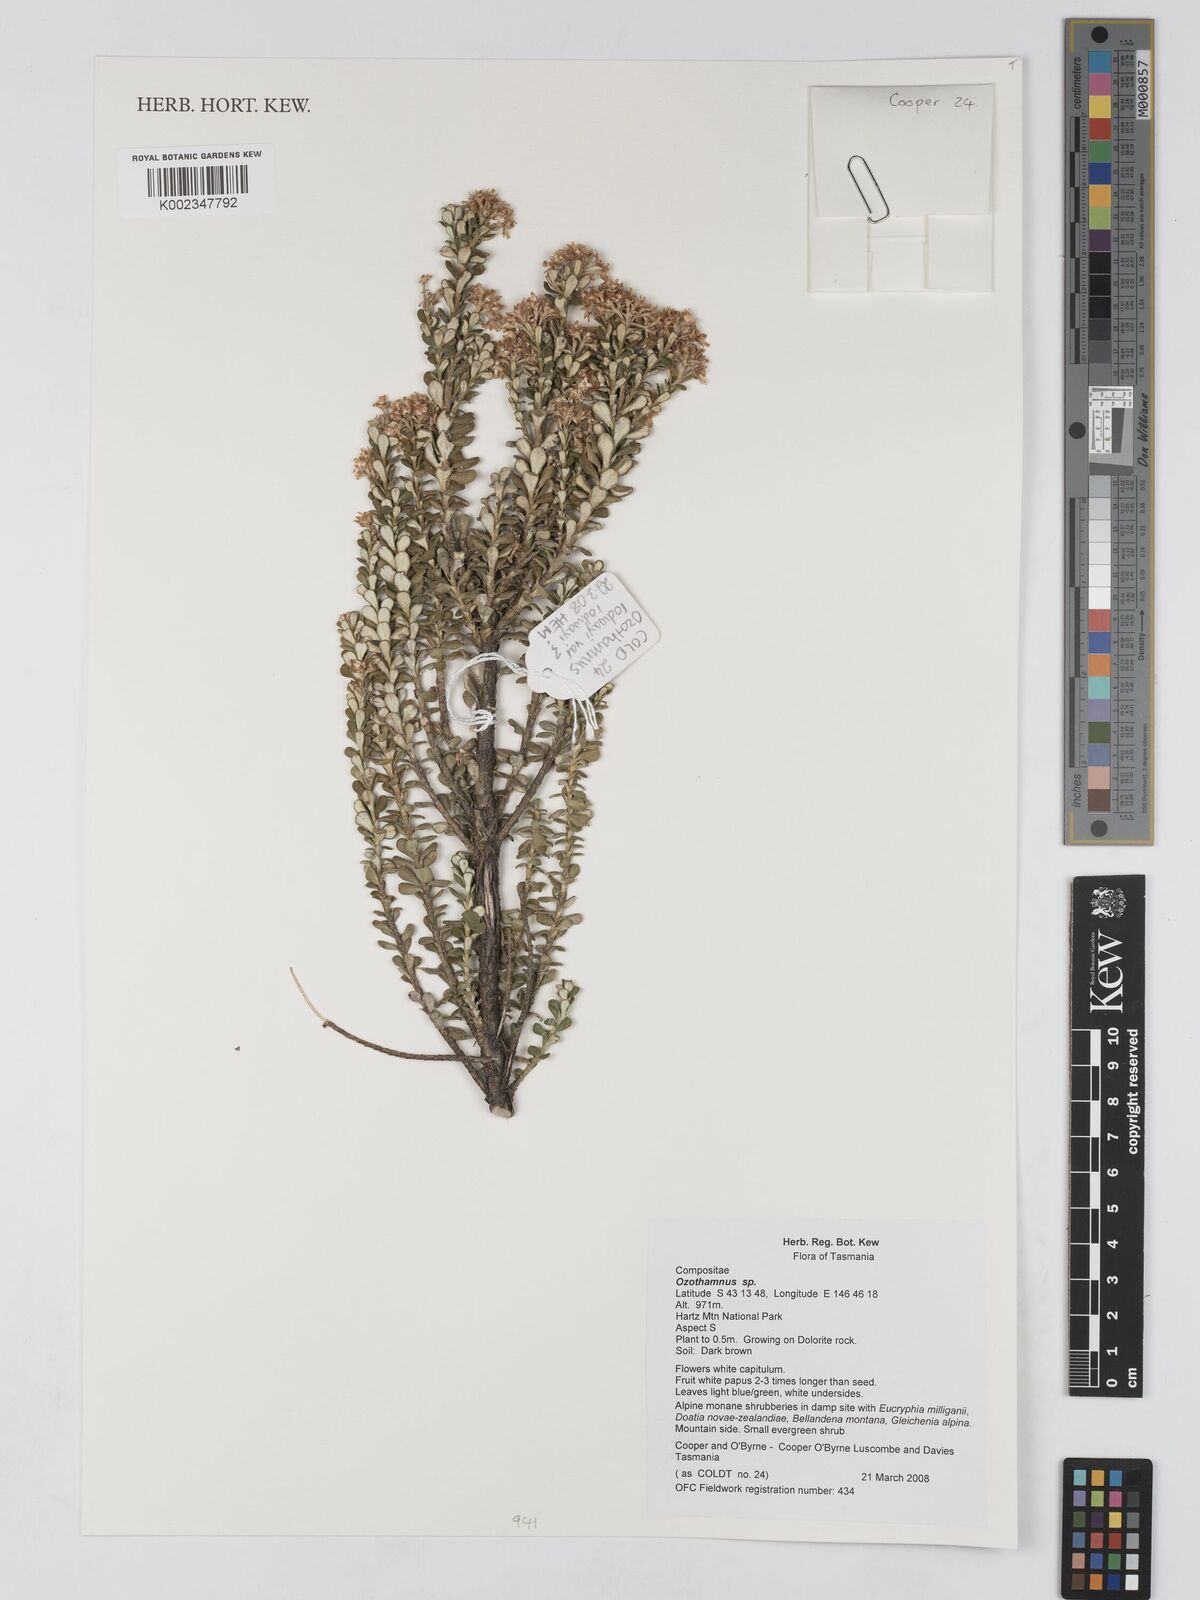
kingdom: Plantae
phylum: Tracheophyta
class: Magnoliopsida
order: Asterales
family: Asteraceae
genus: Ozothamnus
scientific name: Ozothamnus
